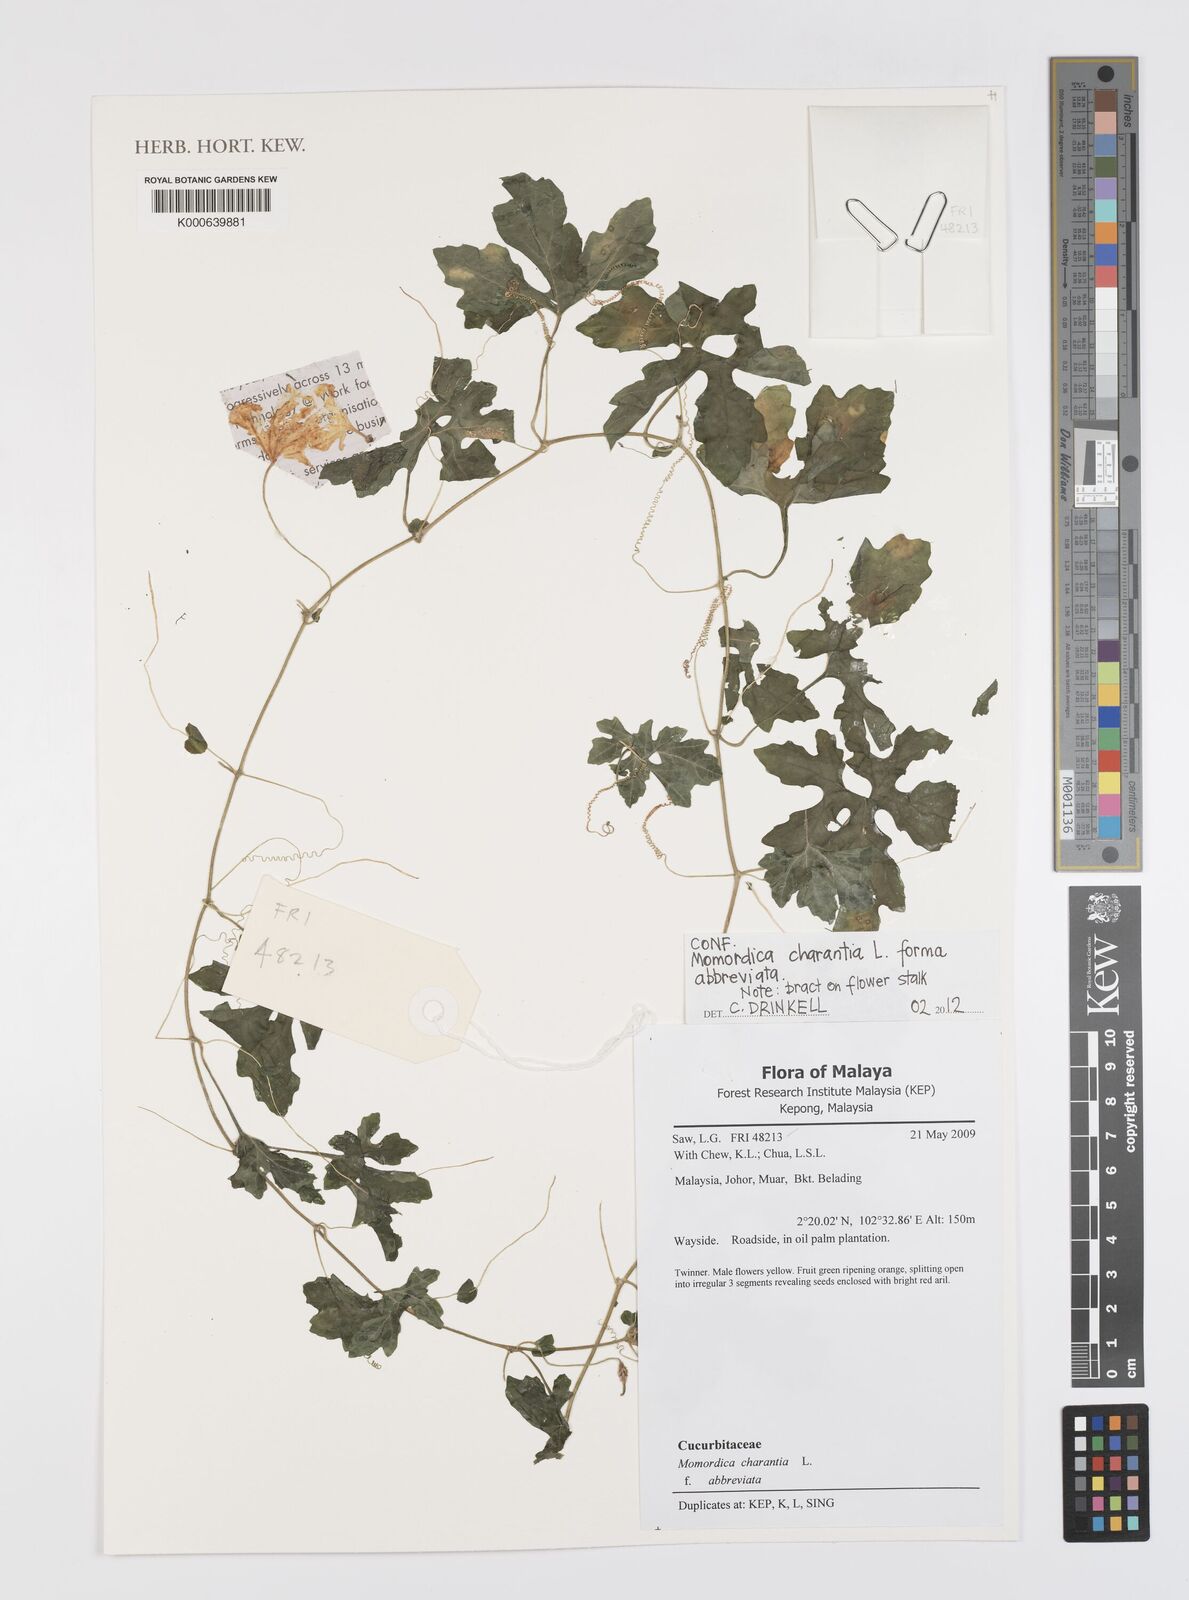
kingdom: Plantae
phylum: Tracheophyta
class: Magnoliopsida
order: Cucurbitales
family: Cucurbitaceae
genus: Momordica
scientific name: Momordica charantia
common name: Balsampear
